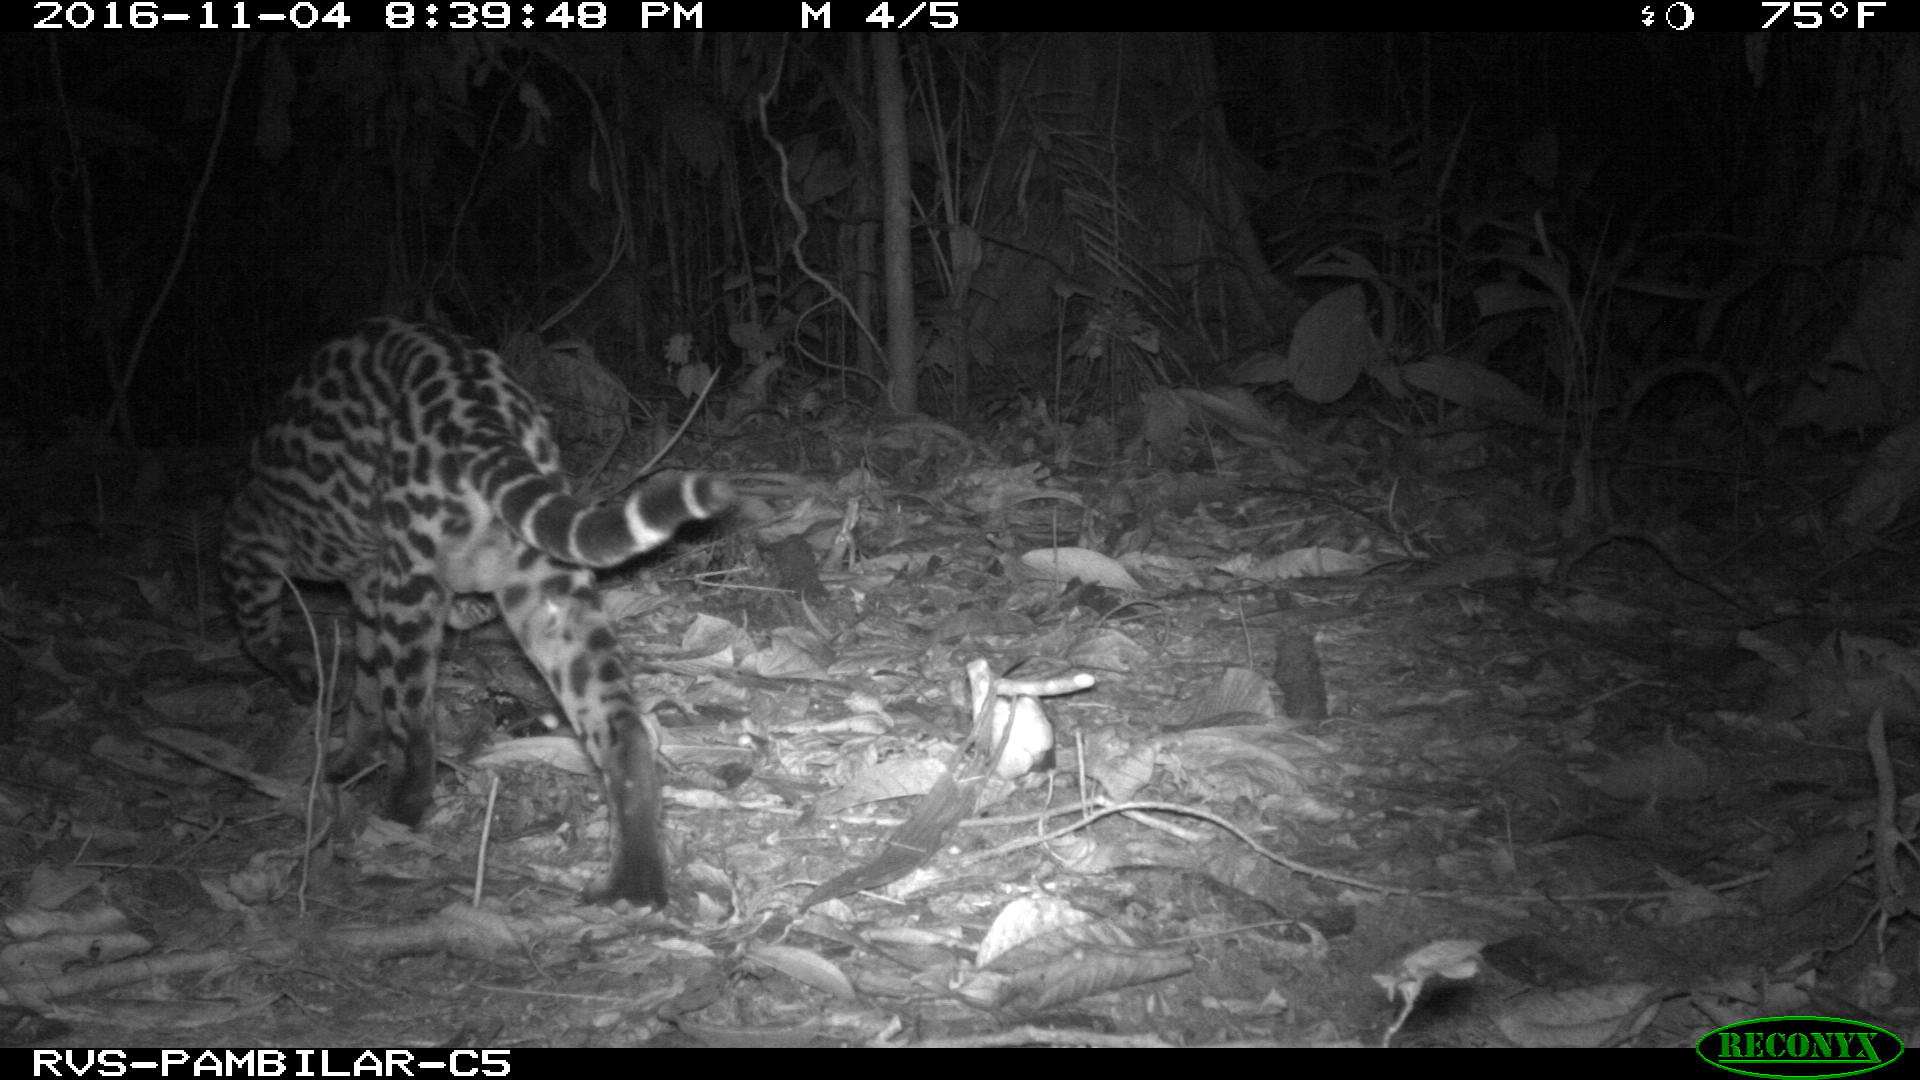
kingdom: Animalia
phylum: Chordata
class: Mammalia
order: Carnivora
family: Felidae
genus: Leopardus
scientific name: Leopardus pardalis
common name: Ocelot
